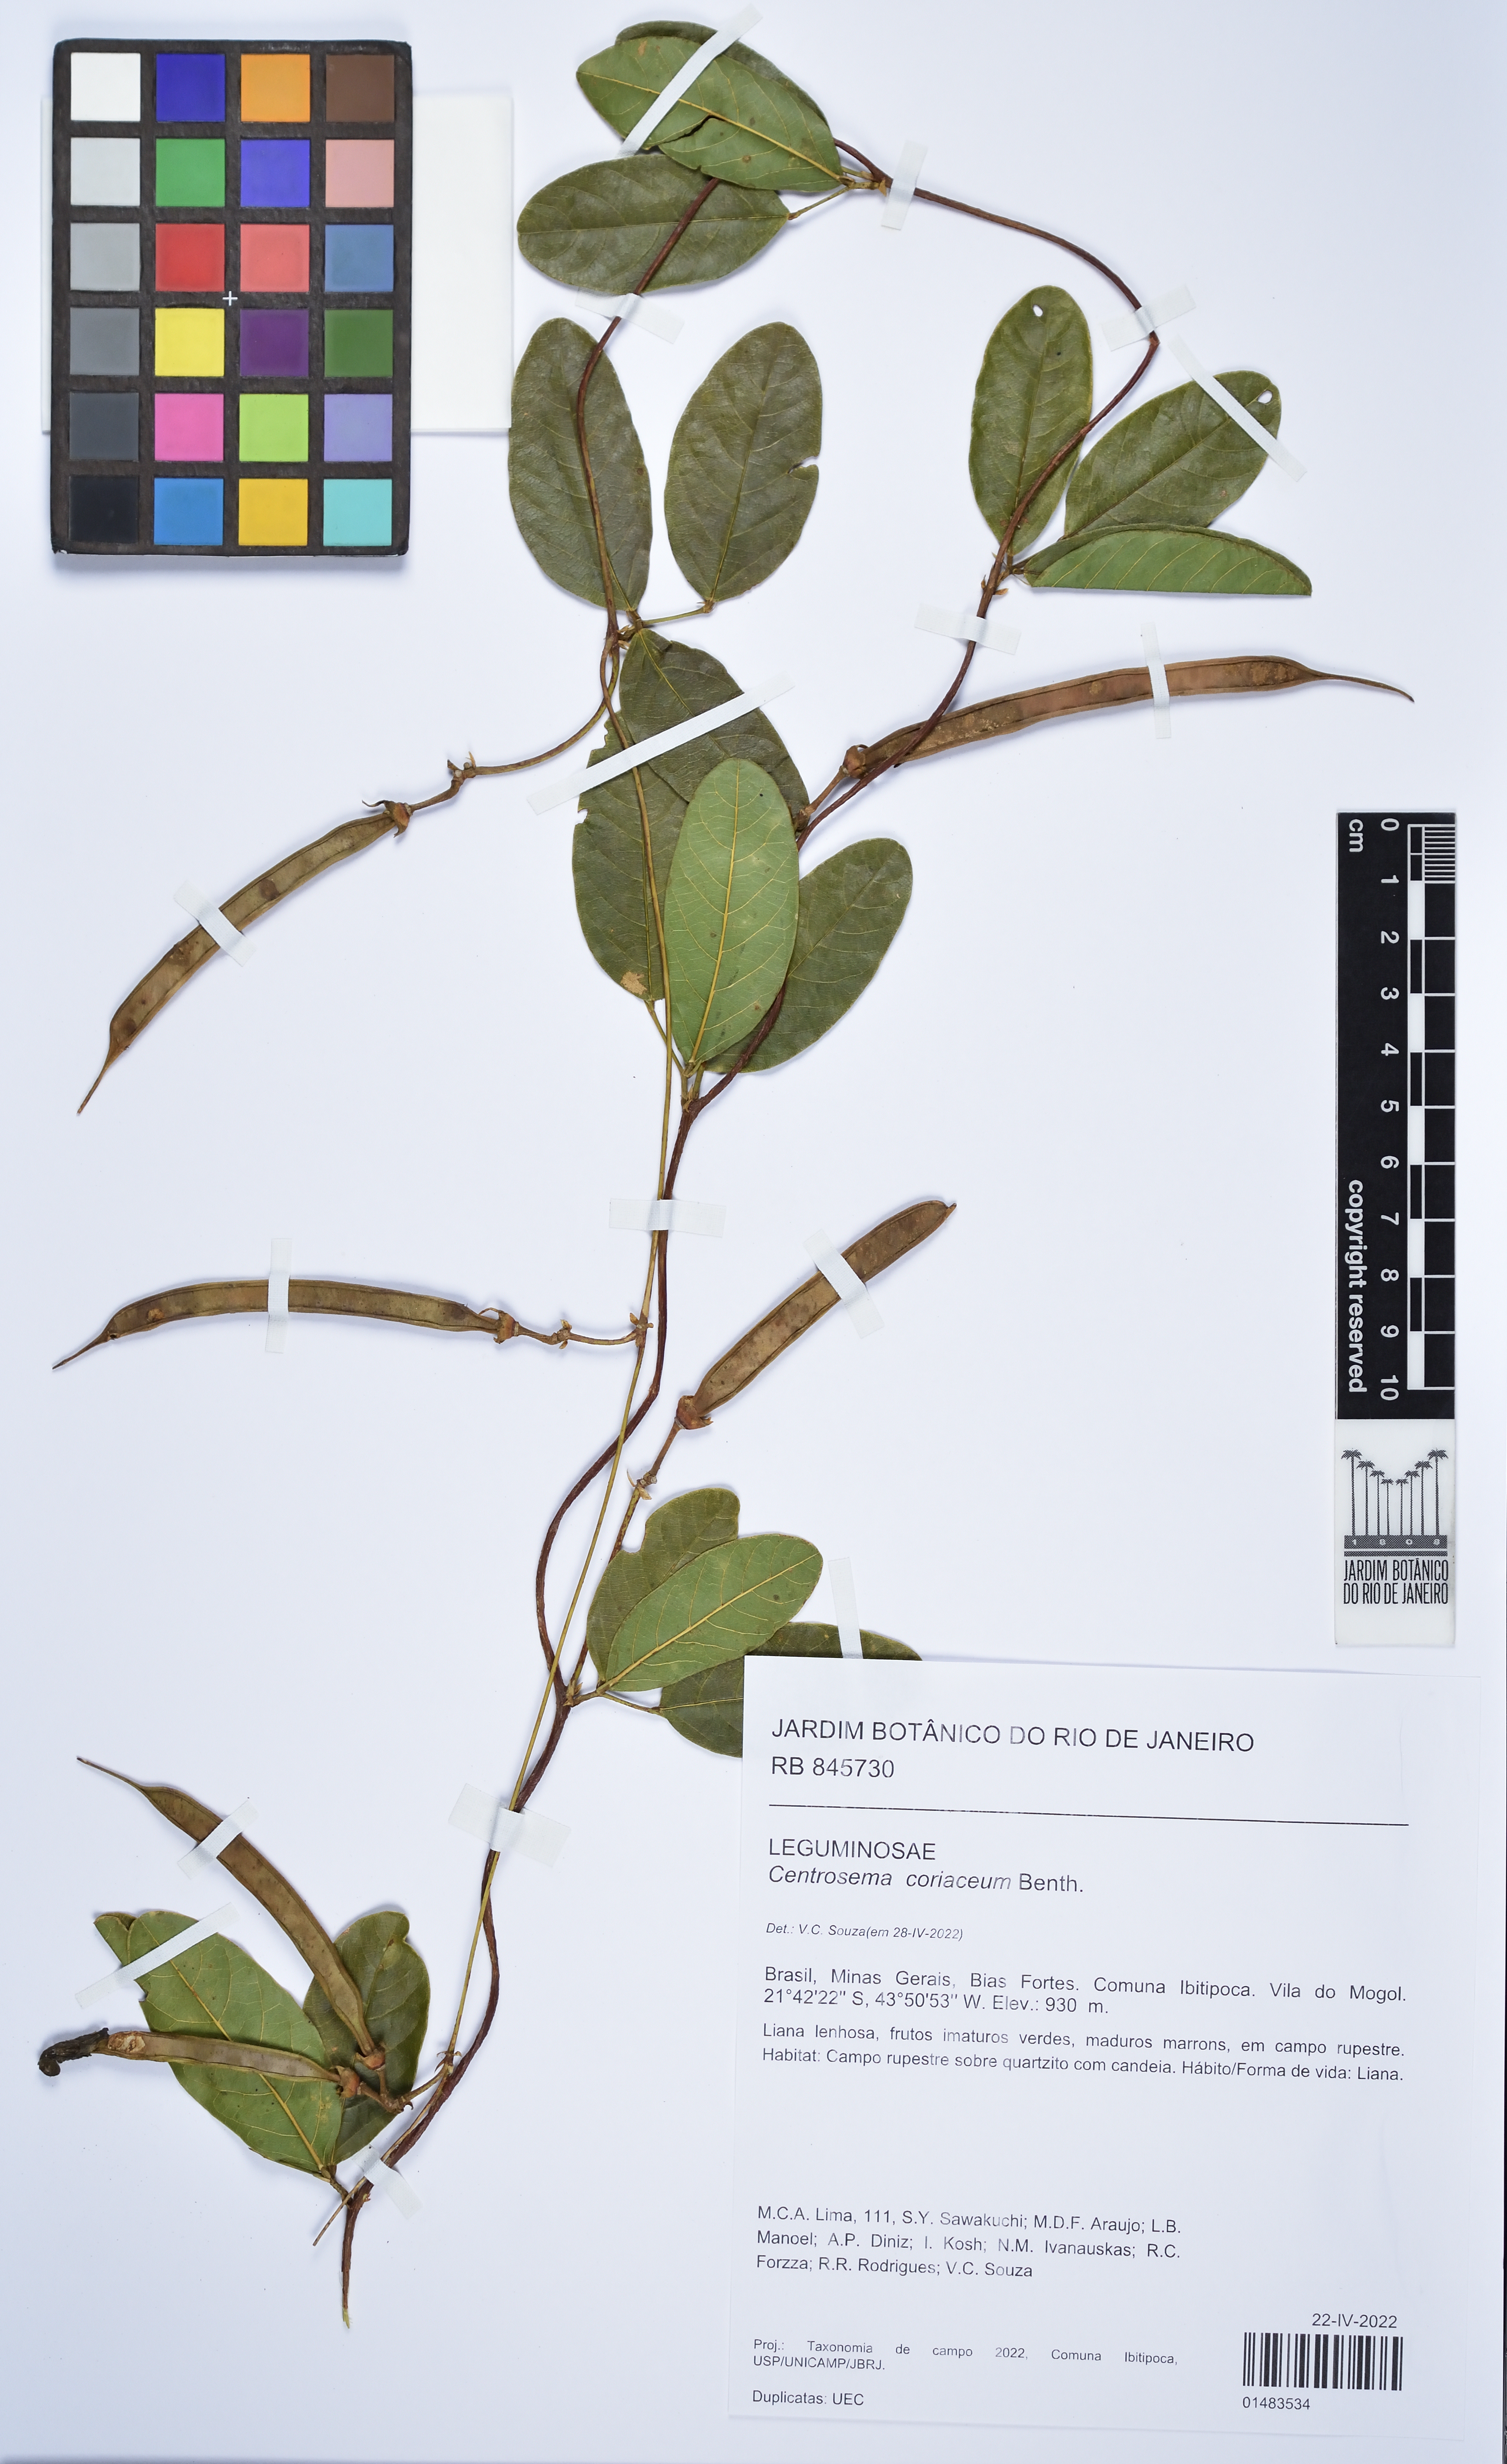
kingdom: Plantae
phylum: Tracheophyta
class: Magnoliopsida
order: Fabales
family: Fabaceae
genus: Centrosema
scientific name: Centrosema coriaceum
